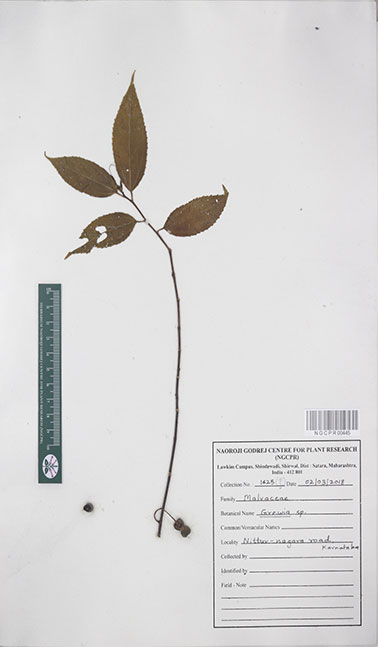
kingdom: Plantae
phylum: Tracheophyta
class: Magnoliopsida
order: Malvales
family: Malvaceae
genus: Grewia
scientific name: Grewia
